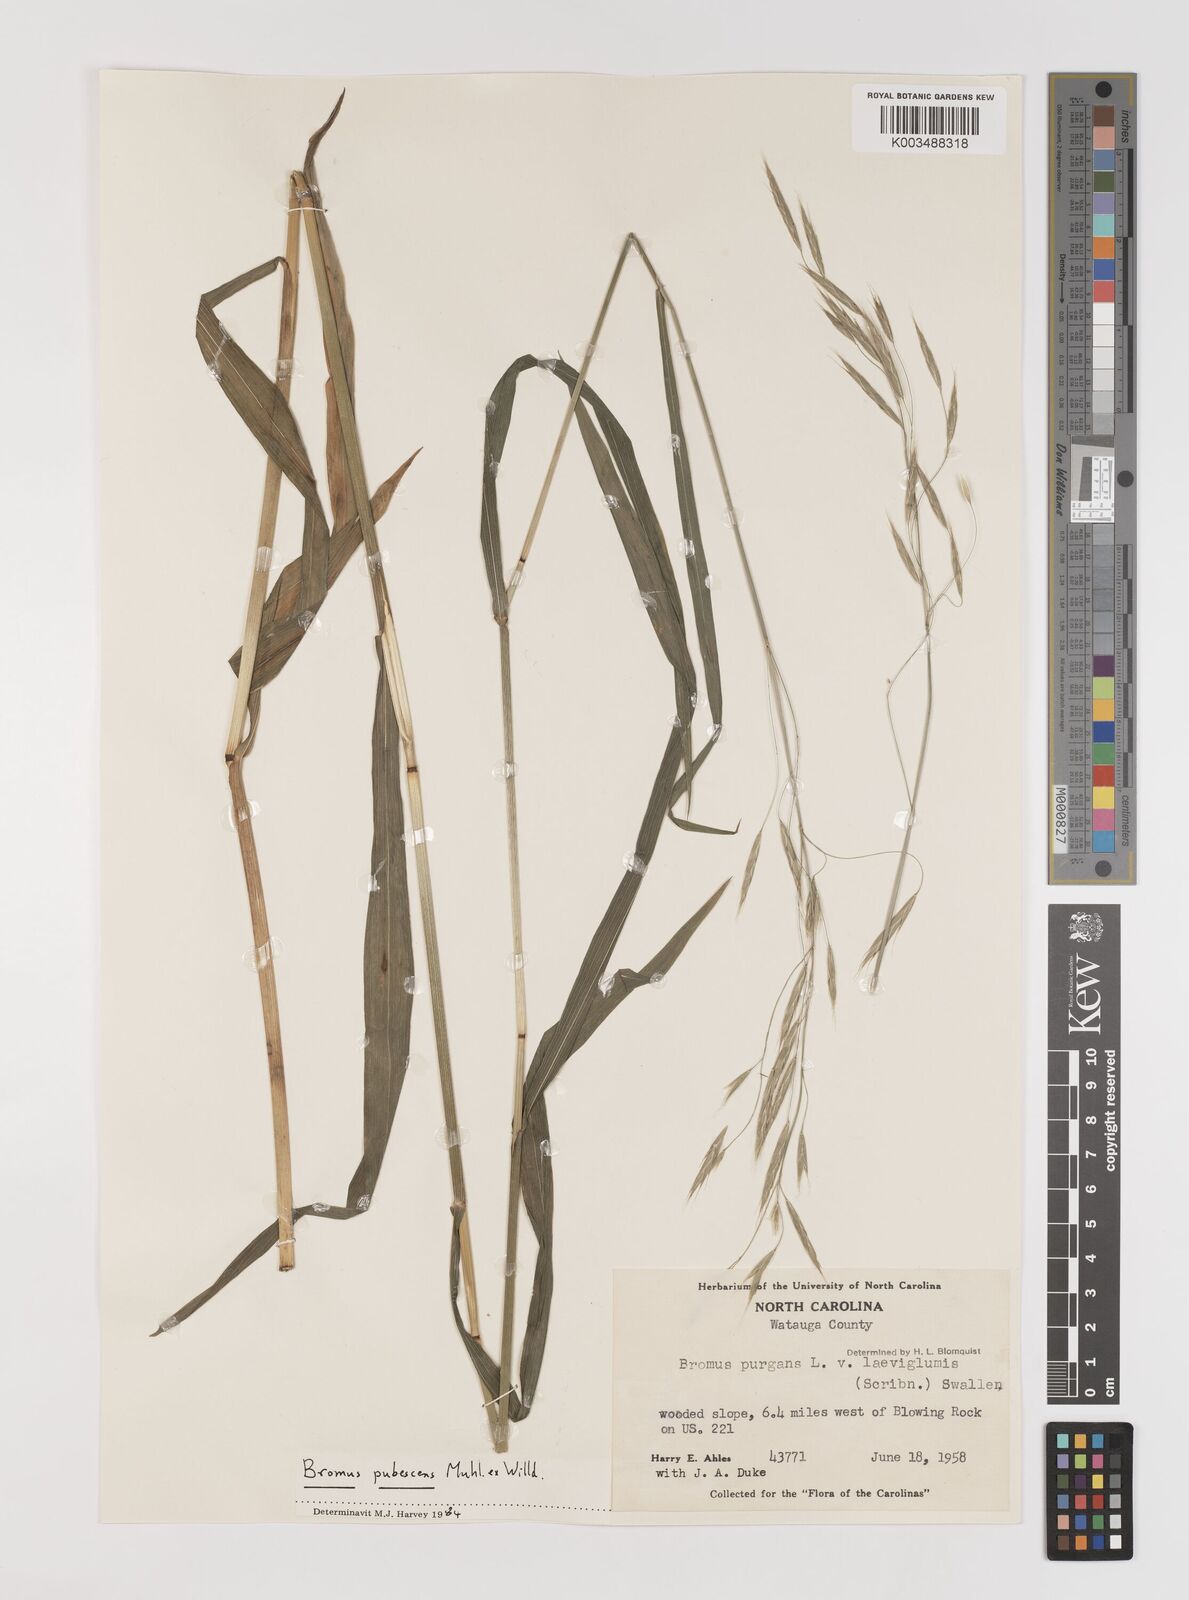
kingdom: Plantae
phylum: Tracheophyta
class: Liliopsida
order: Poales
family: Poaceae
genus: Bromus
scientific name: Bromus pubescens
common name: Hairy wood brome grass
